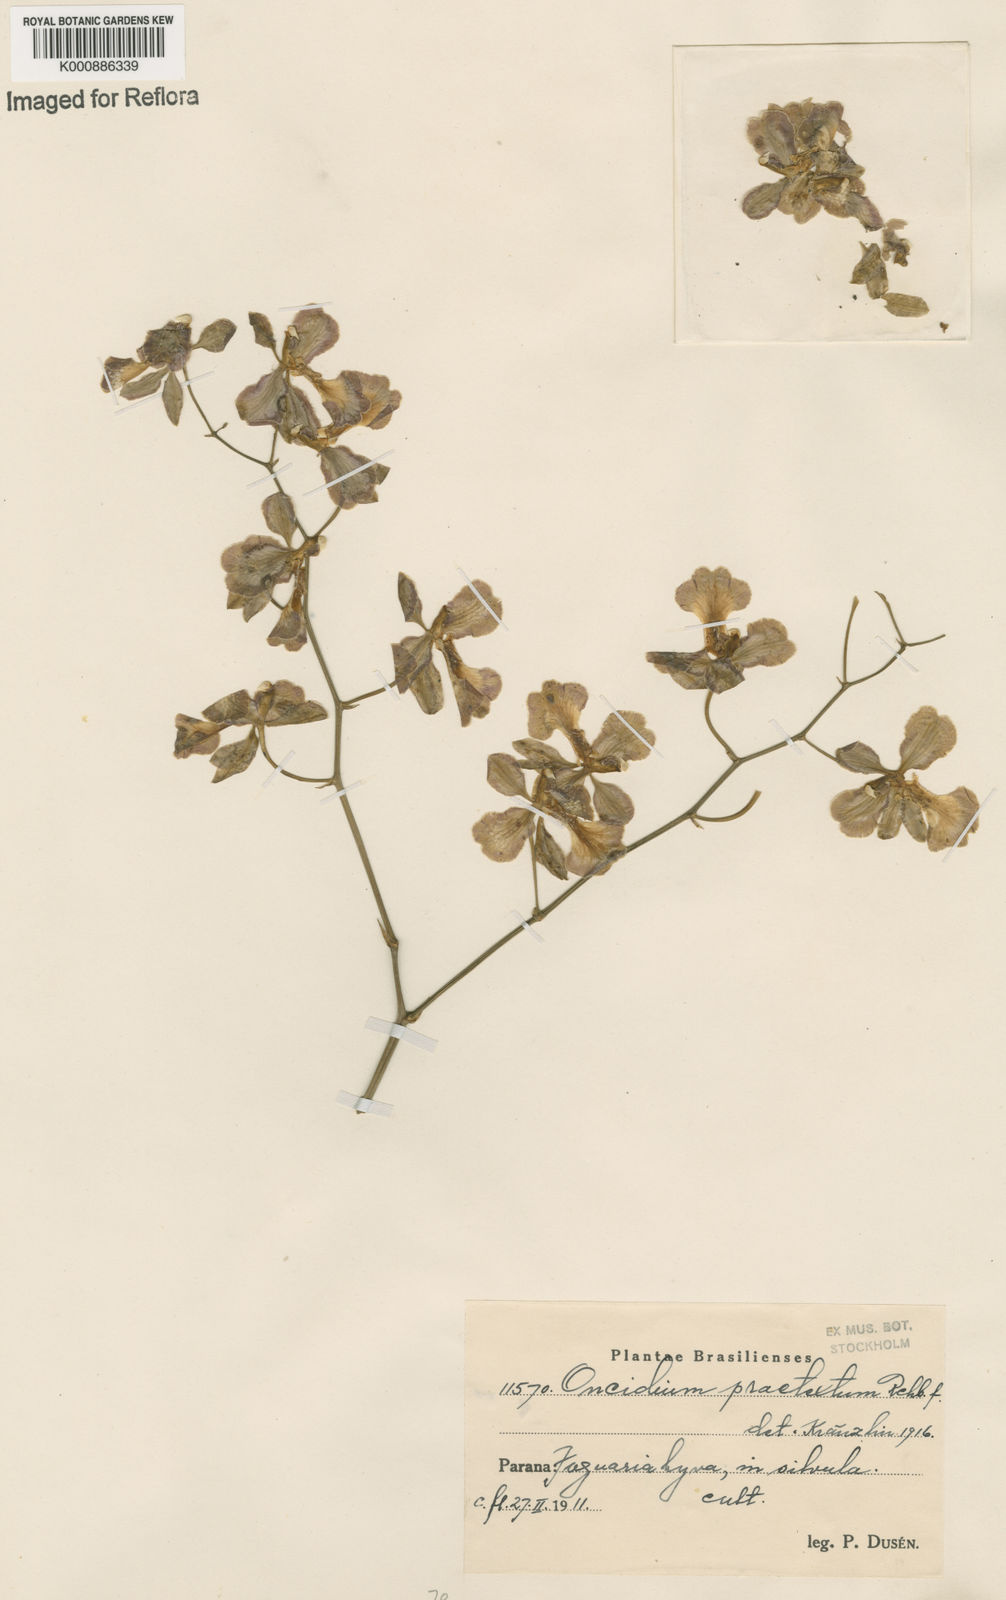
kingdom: Plantae
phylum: Tracheophyta
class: Liliopsida
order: Asparagales
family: Orchidaceae
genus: Gomesa
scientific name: Gomesa praetexta
